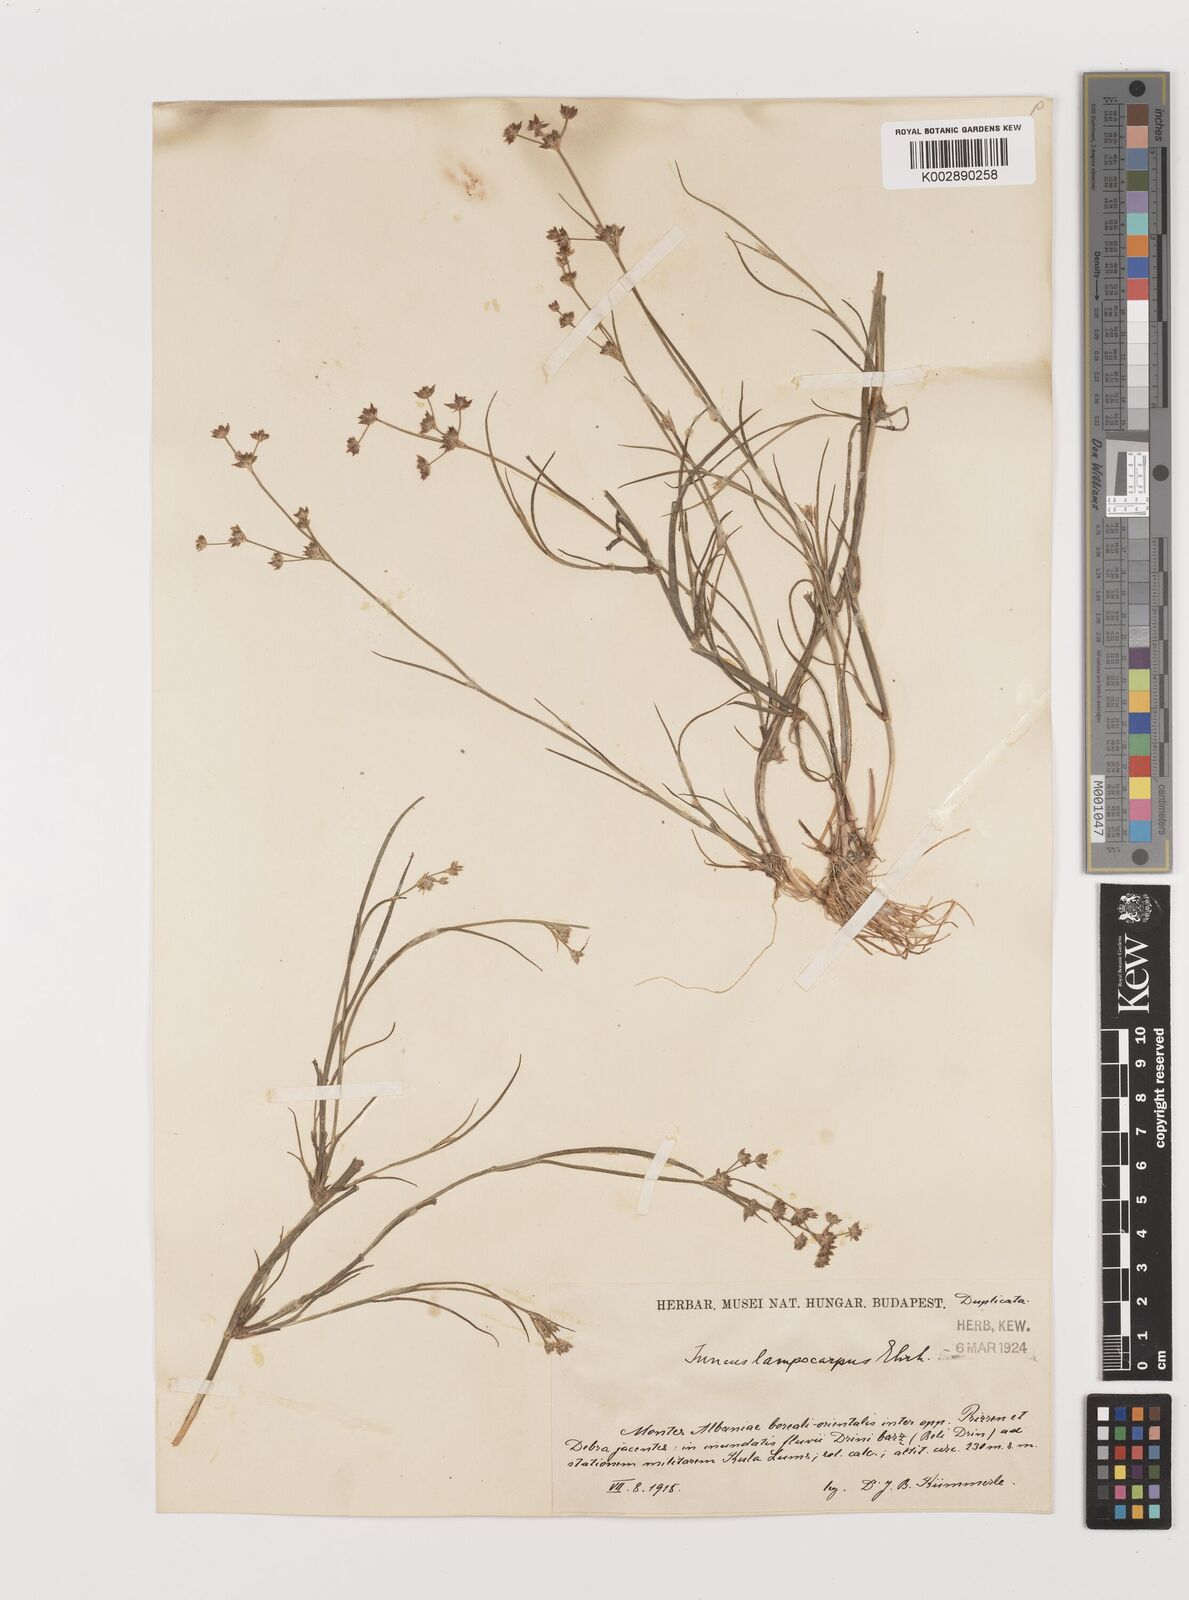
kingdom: Plantae
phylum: Tracheophyta
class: Liliopsida
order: Poales
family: Juncaceae
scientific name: Juncaceae
